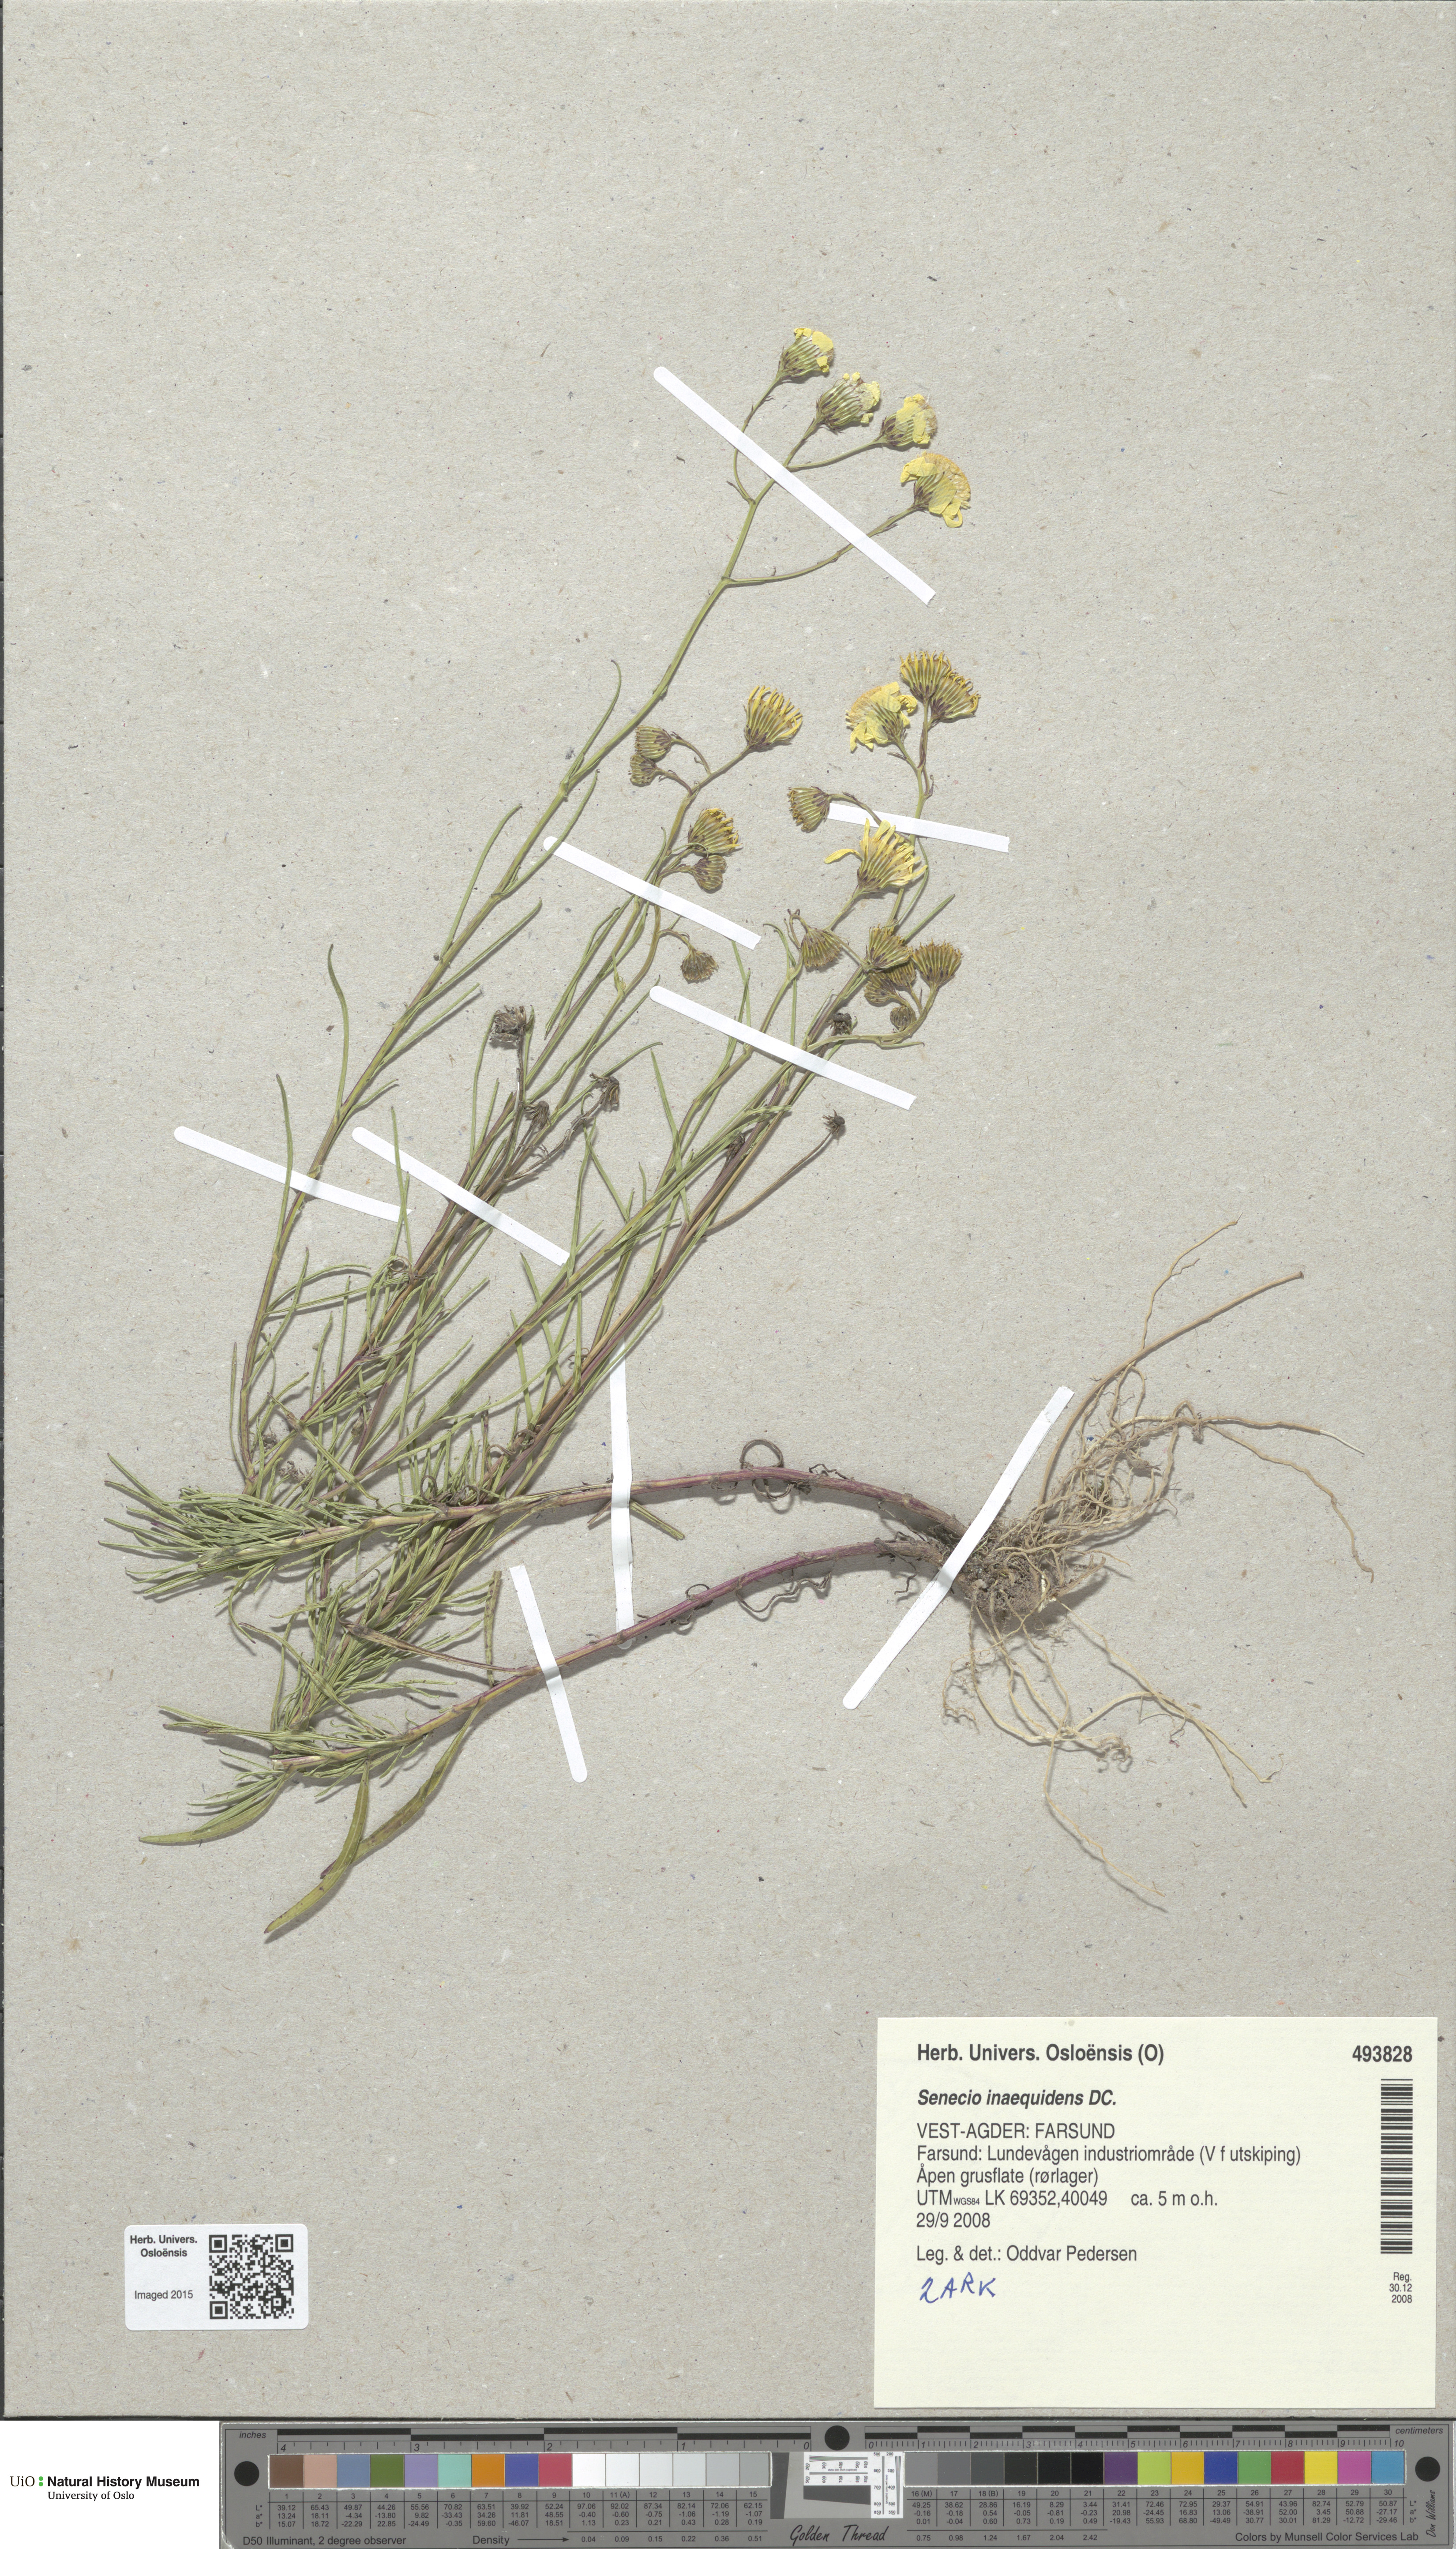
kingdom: Plantae
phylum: Tracheophyta
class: Magnoliopsida
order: Asterales
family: Asteraceae
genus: Senecio
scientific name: Senecio inaequidens
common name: Narrow-leaved ragwort
